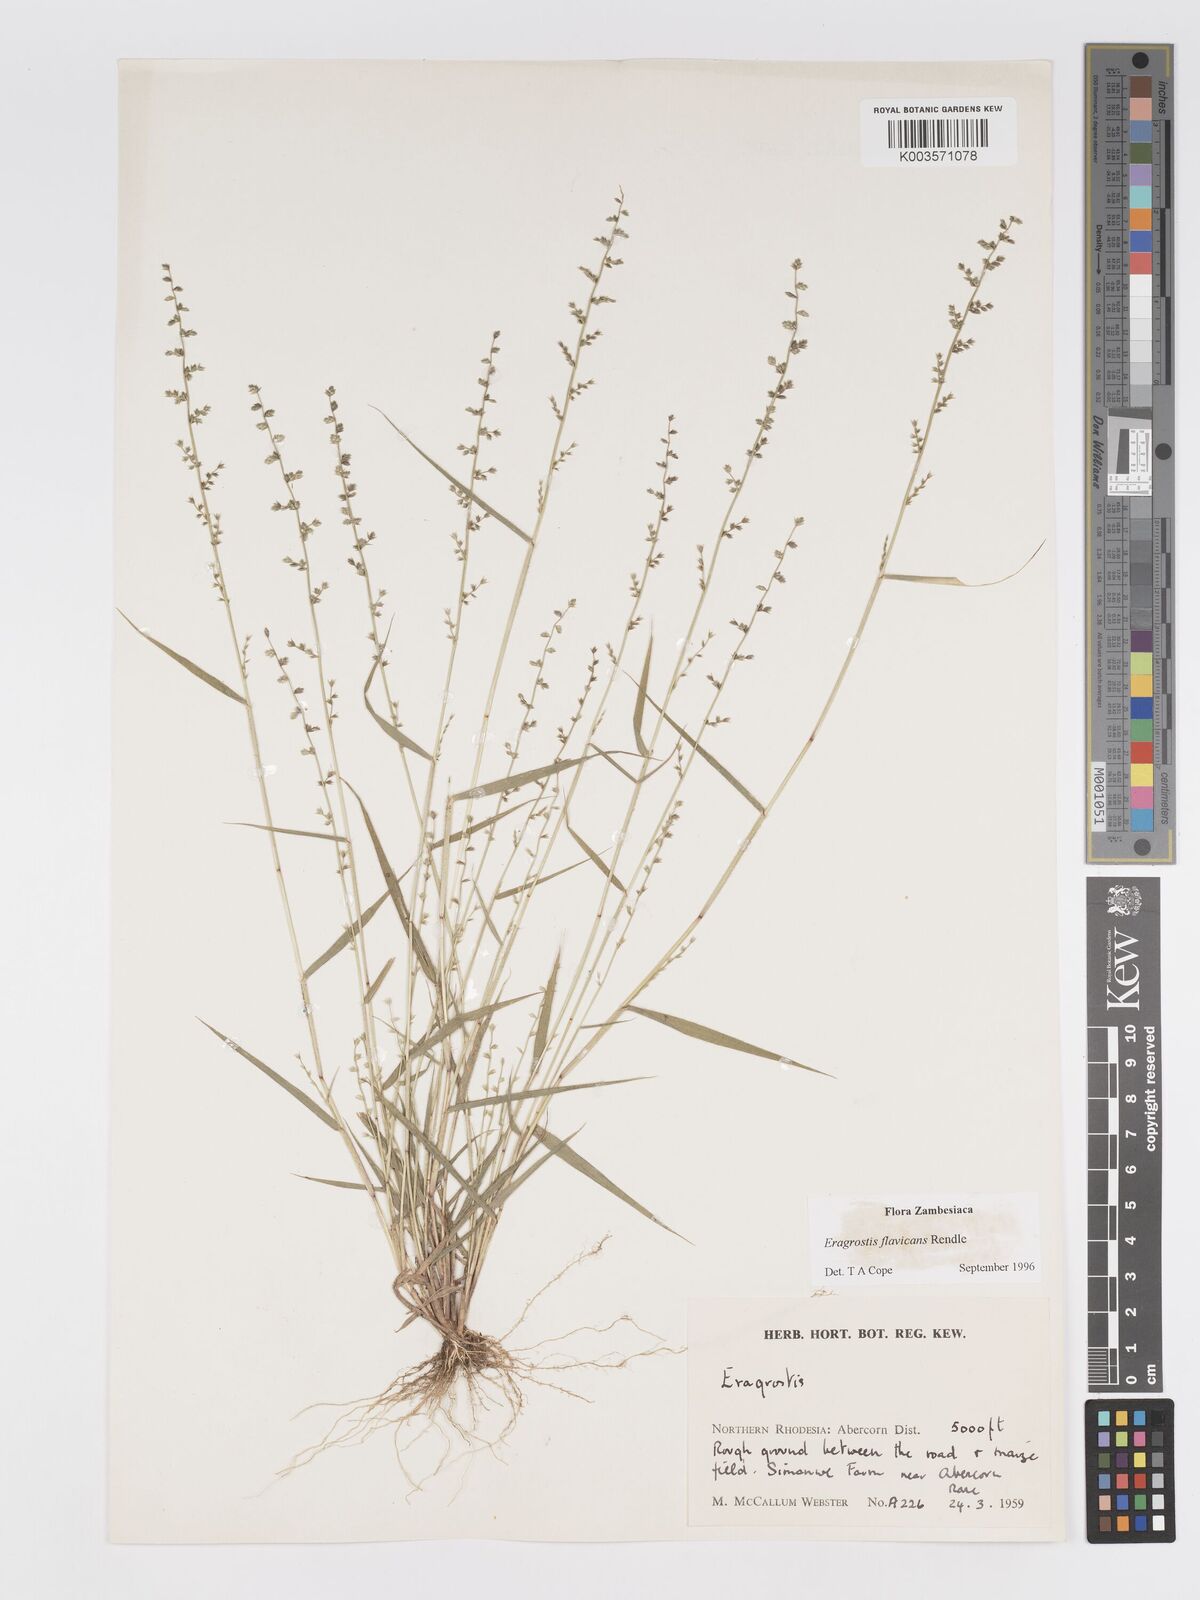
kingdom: Plantae
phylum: Tracheophyta
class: Liliopsida
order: Poales
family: Poaceae
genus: Eragrostis
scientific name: Eragrostis flavicans
